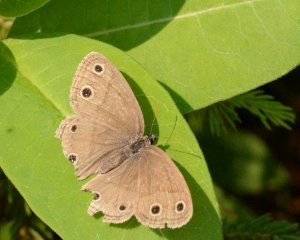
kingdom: Animalia
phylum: Arthropoda
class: Insecta
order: Lepidoptera
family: Nymphalidae
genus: Euptychia
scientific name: Euptychia cymela
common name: Little Wood Satyr
